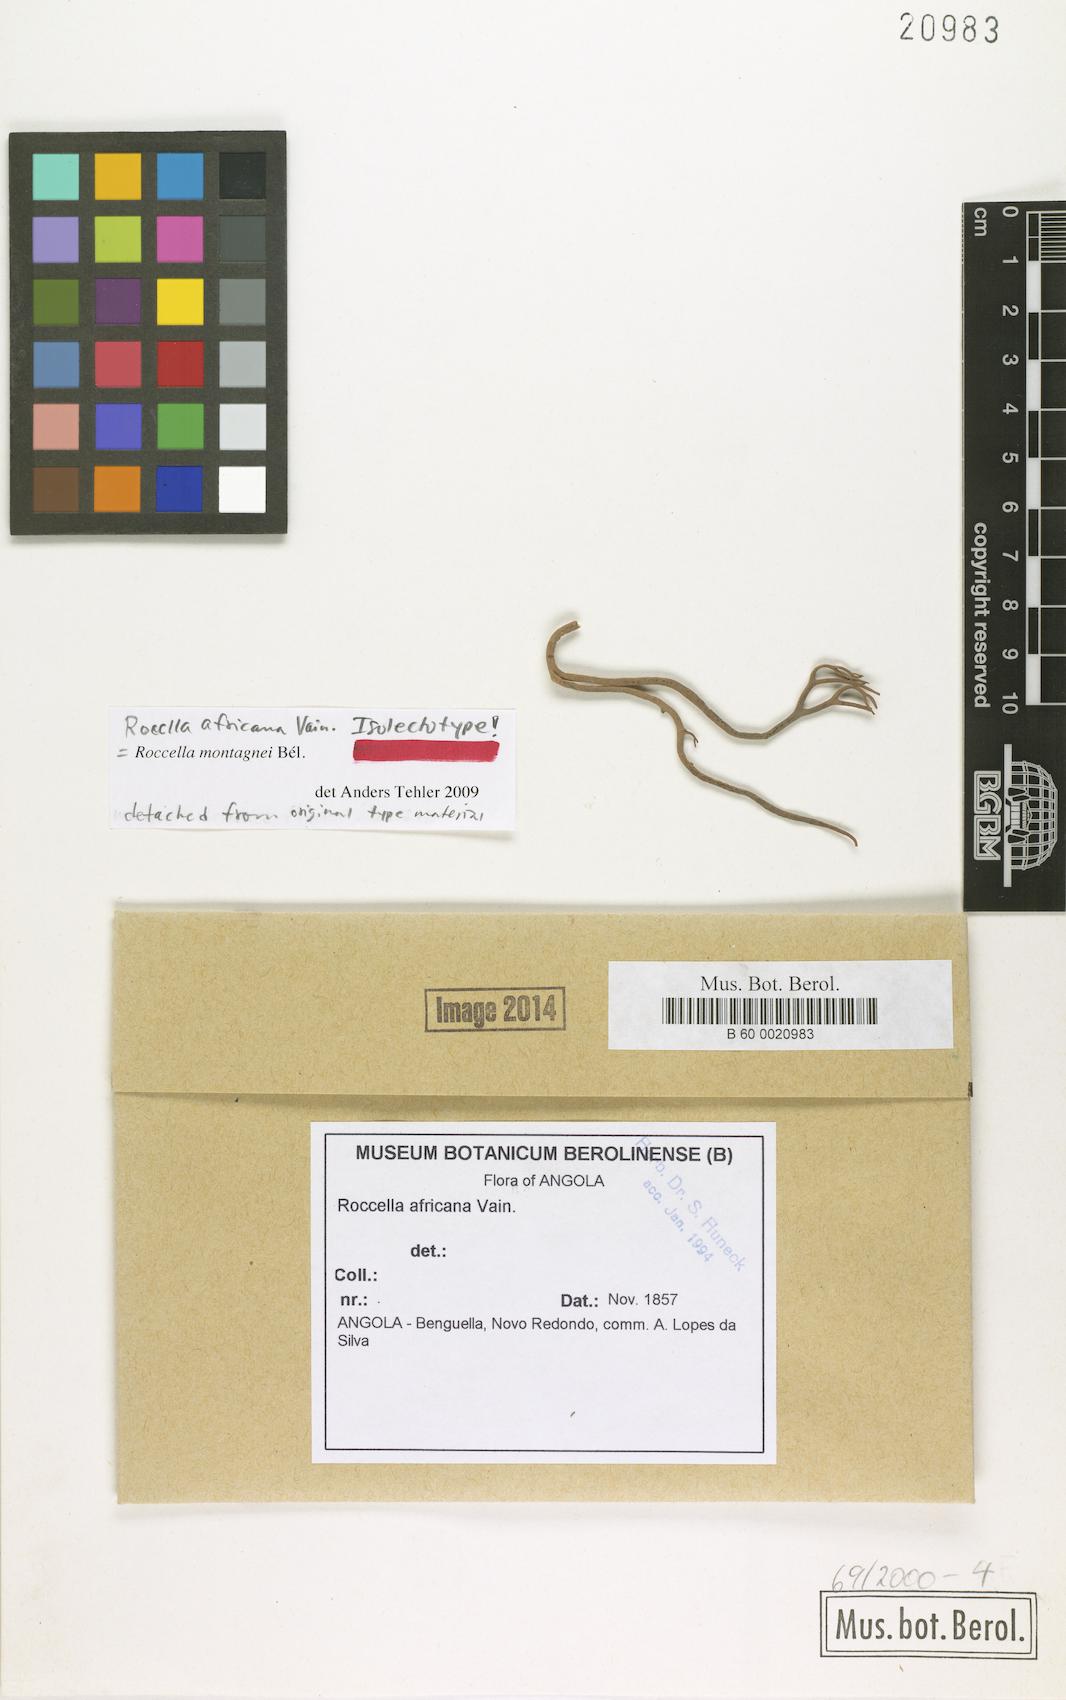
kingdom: Fungi
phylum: Ascomycota
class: Arthoniomycetes
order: Arthoniales
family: Roccellaceae
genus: Roccella
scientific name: Roccella africana
